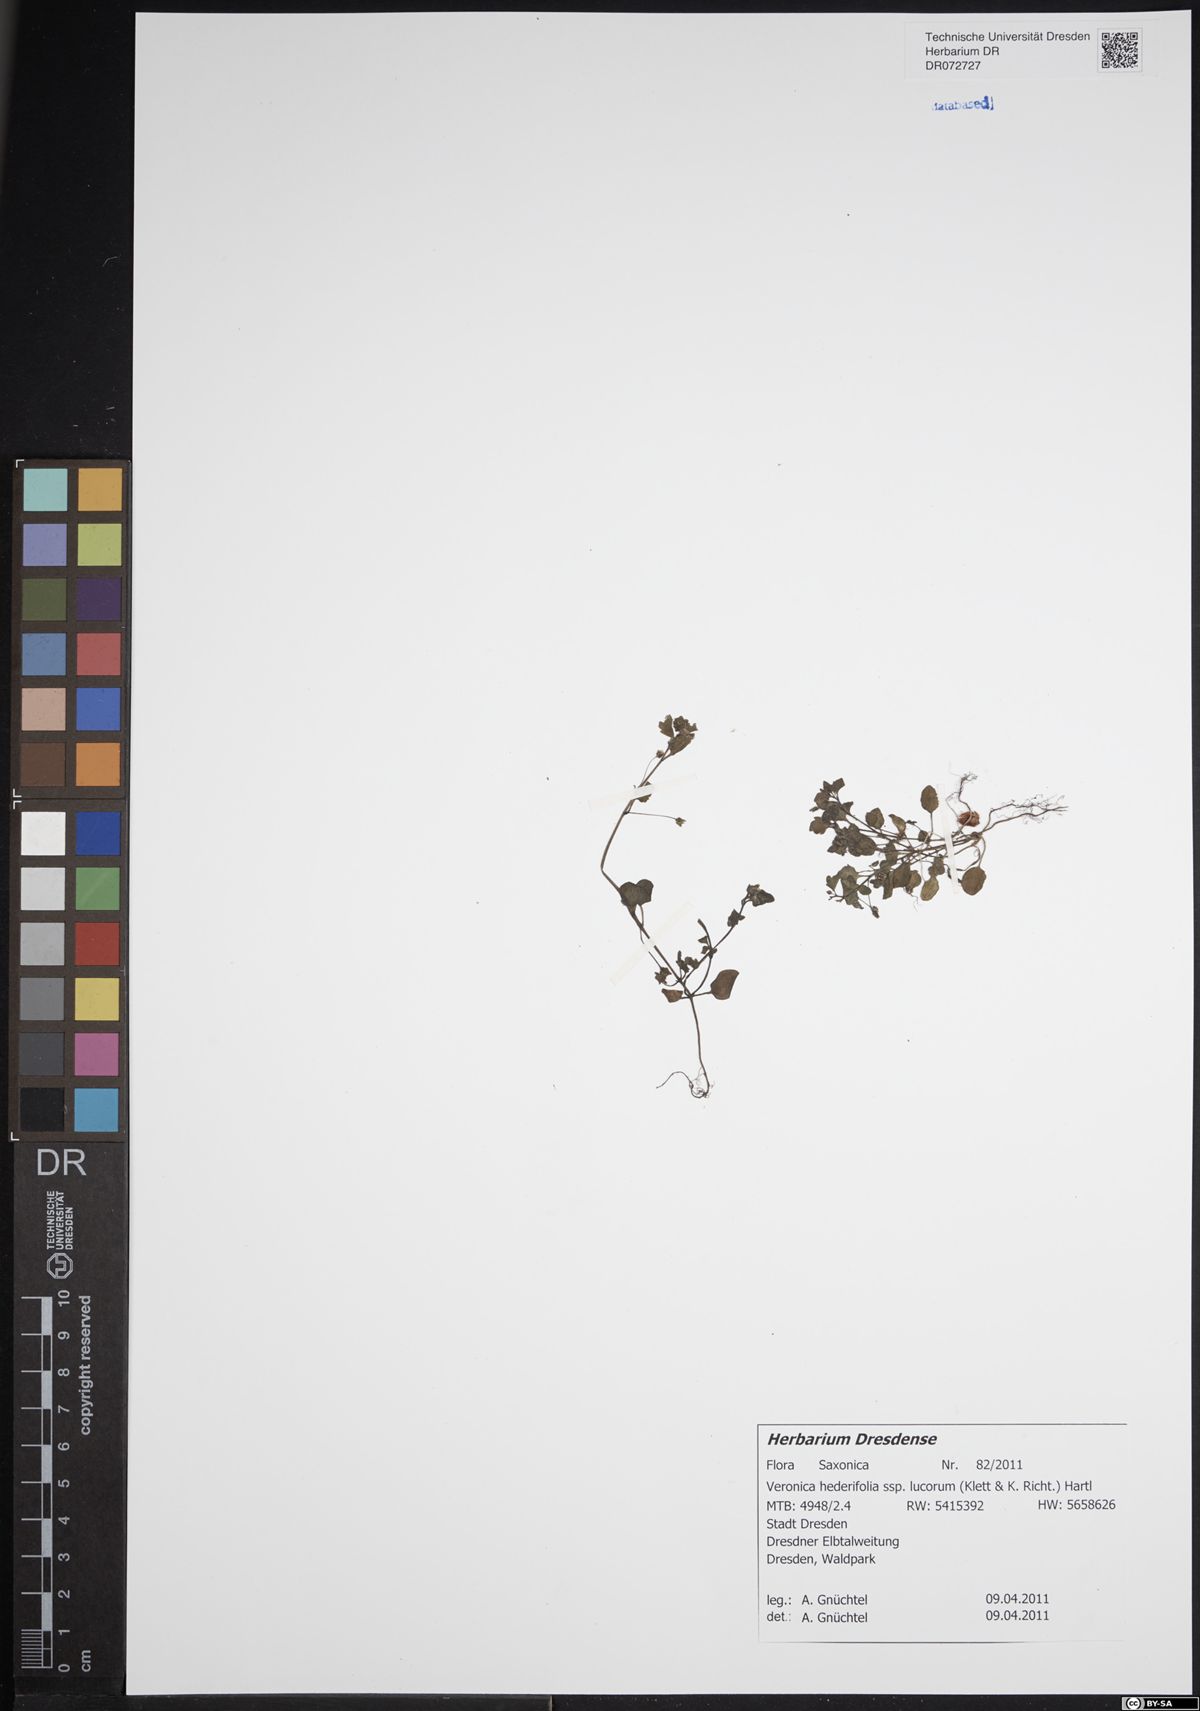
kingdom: Plantae
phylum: Tracheophyta
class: Magnoliopsida
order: Lamiales
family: Plantaginaceae
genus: Veronica
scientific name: Veronica hederifolia
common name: Ivy-leaved speedwell
